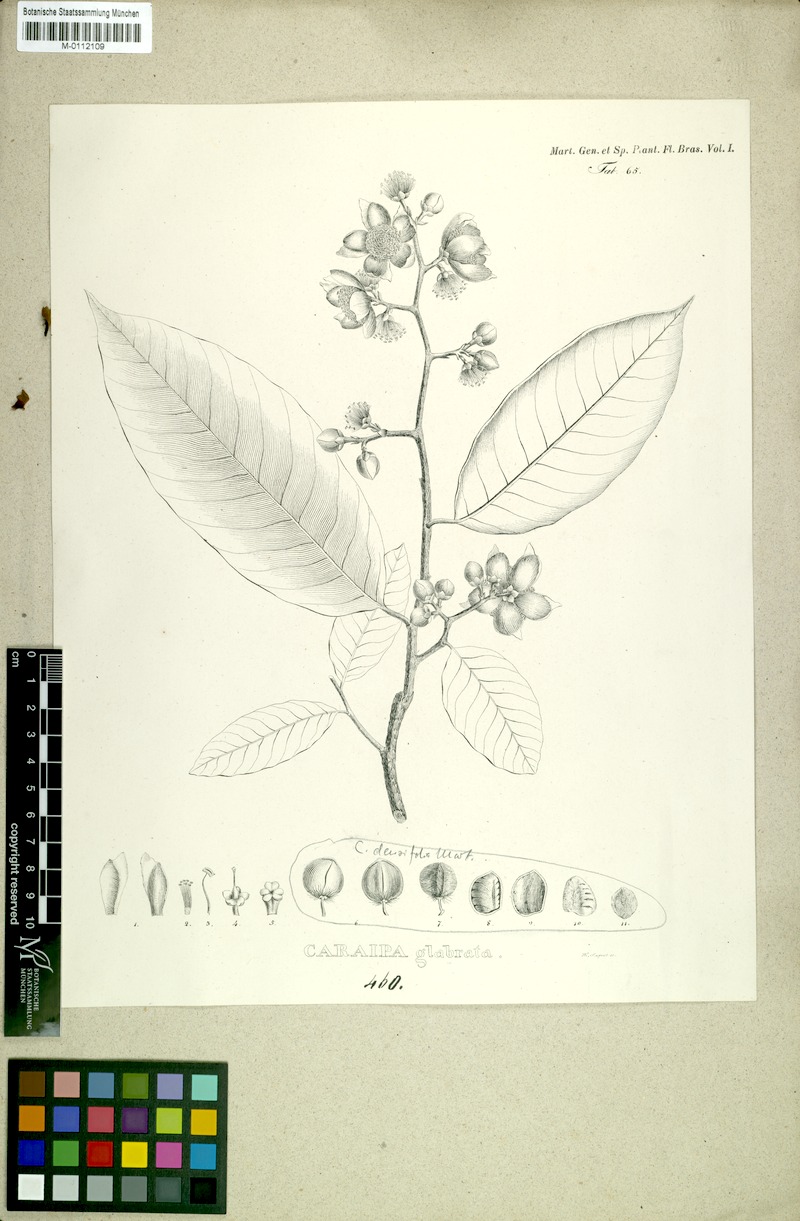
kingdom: Plantae
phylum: Tracheophyta
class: Magnoliopsida
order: Malpighiales
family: Calophyllaceae
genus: Caraipa
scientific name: Caraipa grandifolia
